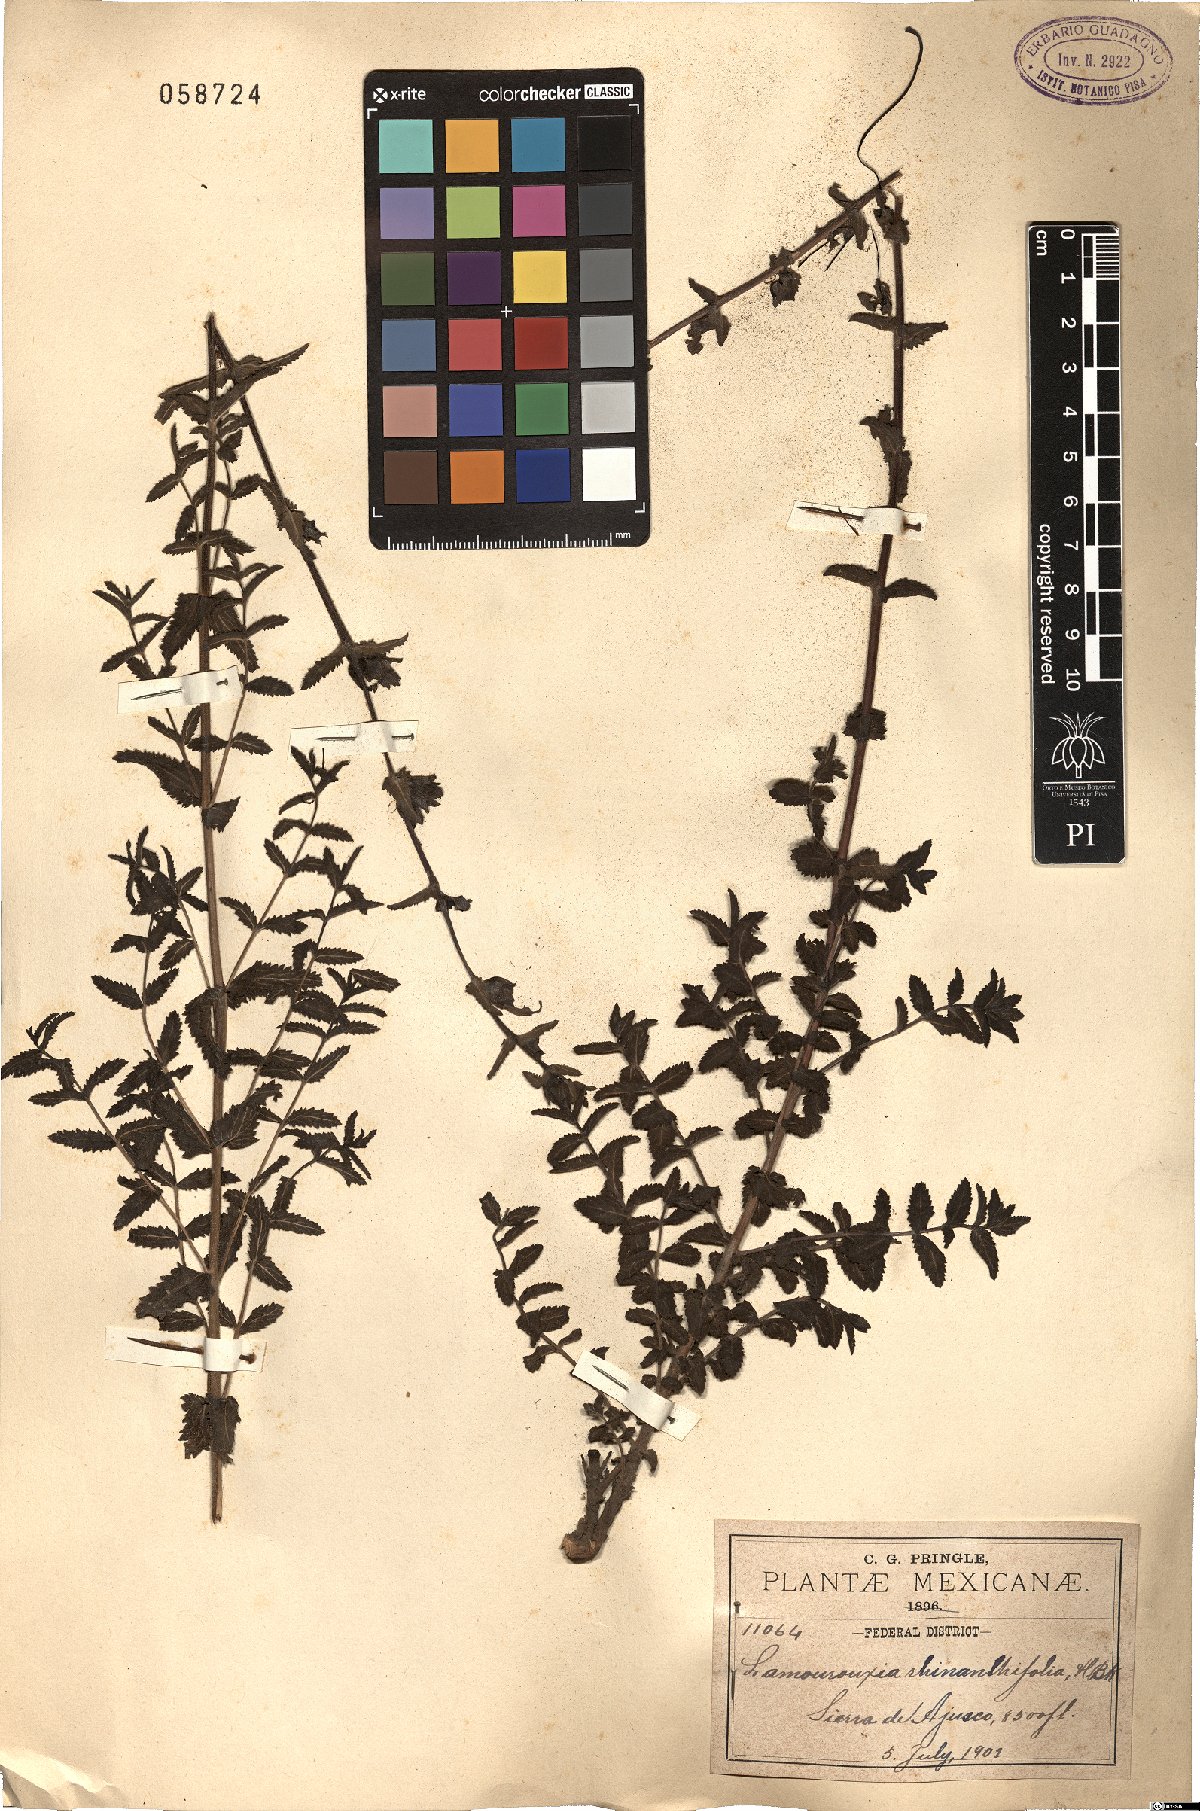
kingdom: Plantae
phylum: Tracheophyta
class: Magnoliopsida
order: Lamiales
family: Orobanchaceae
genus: Lamourouxia
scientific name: Lamourouxia rhinanthifolia
